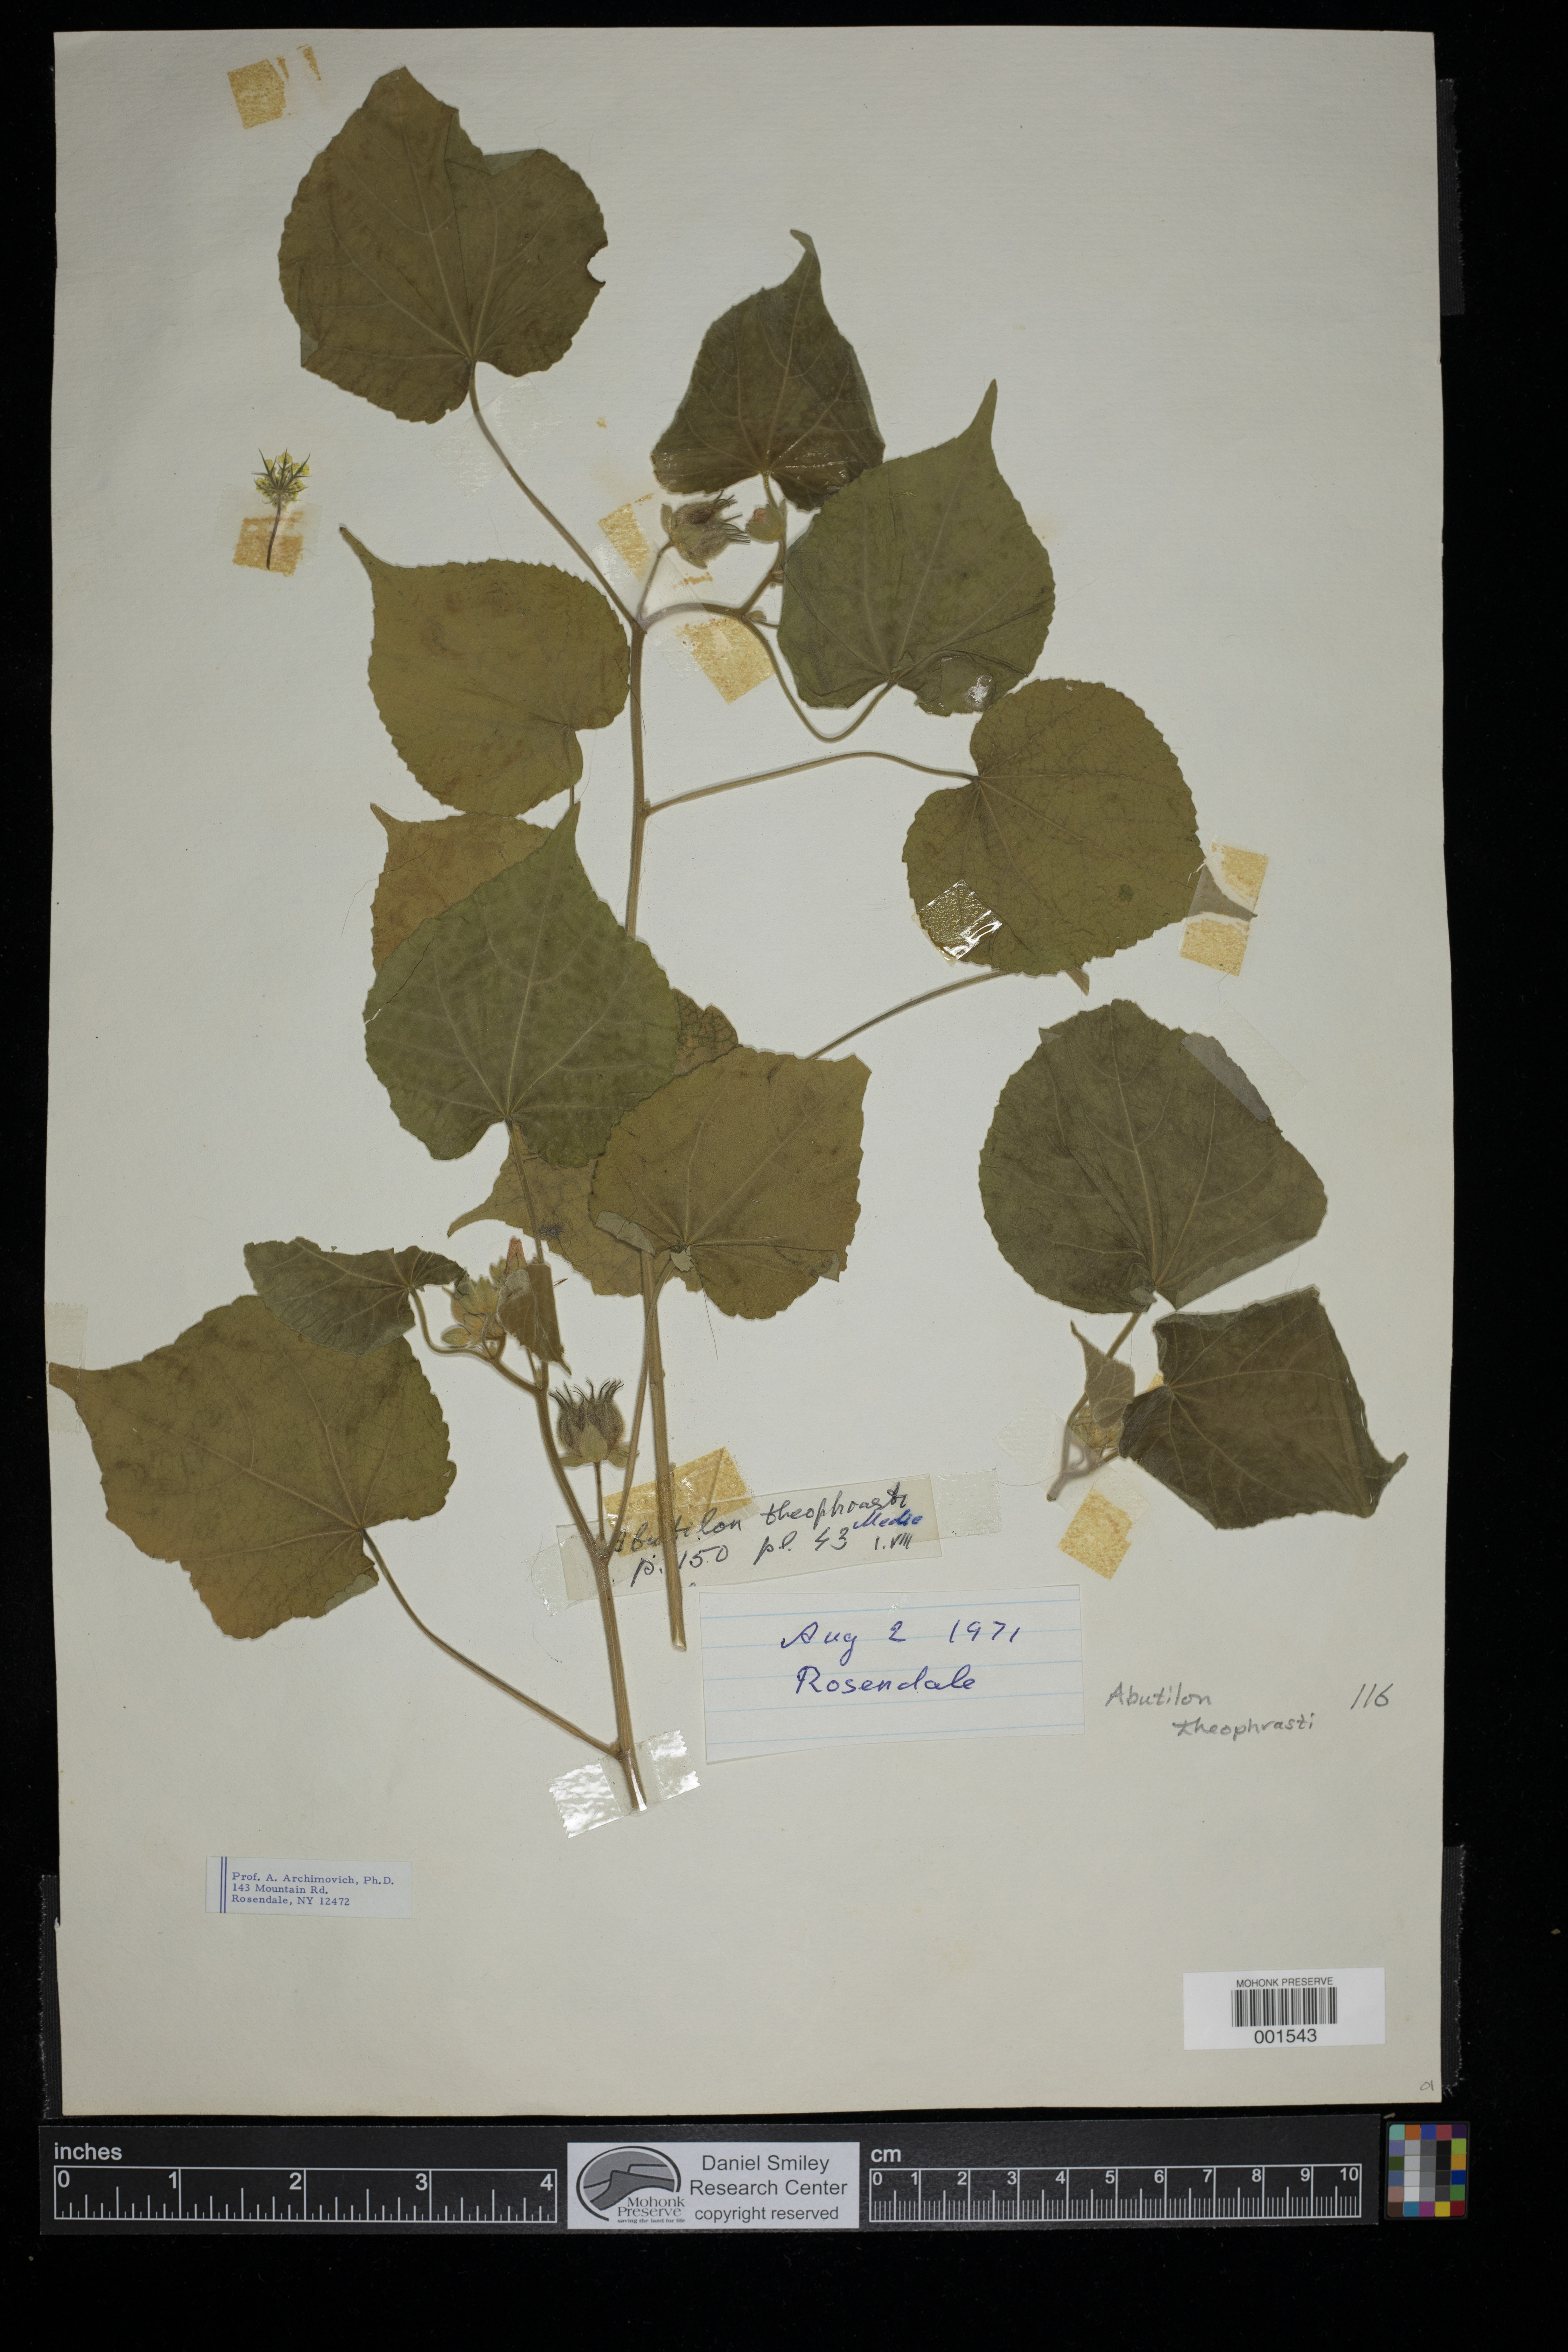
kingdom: Plantae
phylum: Tracheophyta
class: Magnoliopsida
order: Malvales
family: Malvaceae
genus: Abutilon
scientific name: Abutilon theophrasti
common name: Velvetleaf
